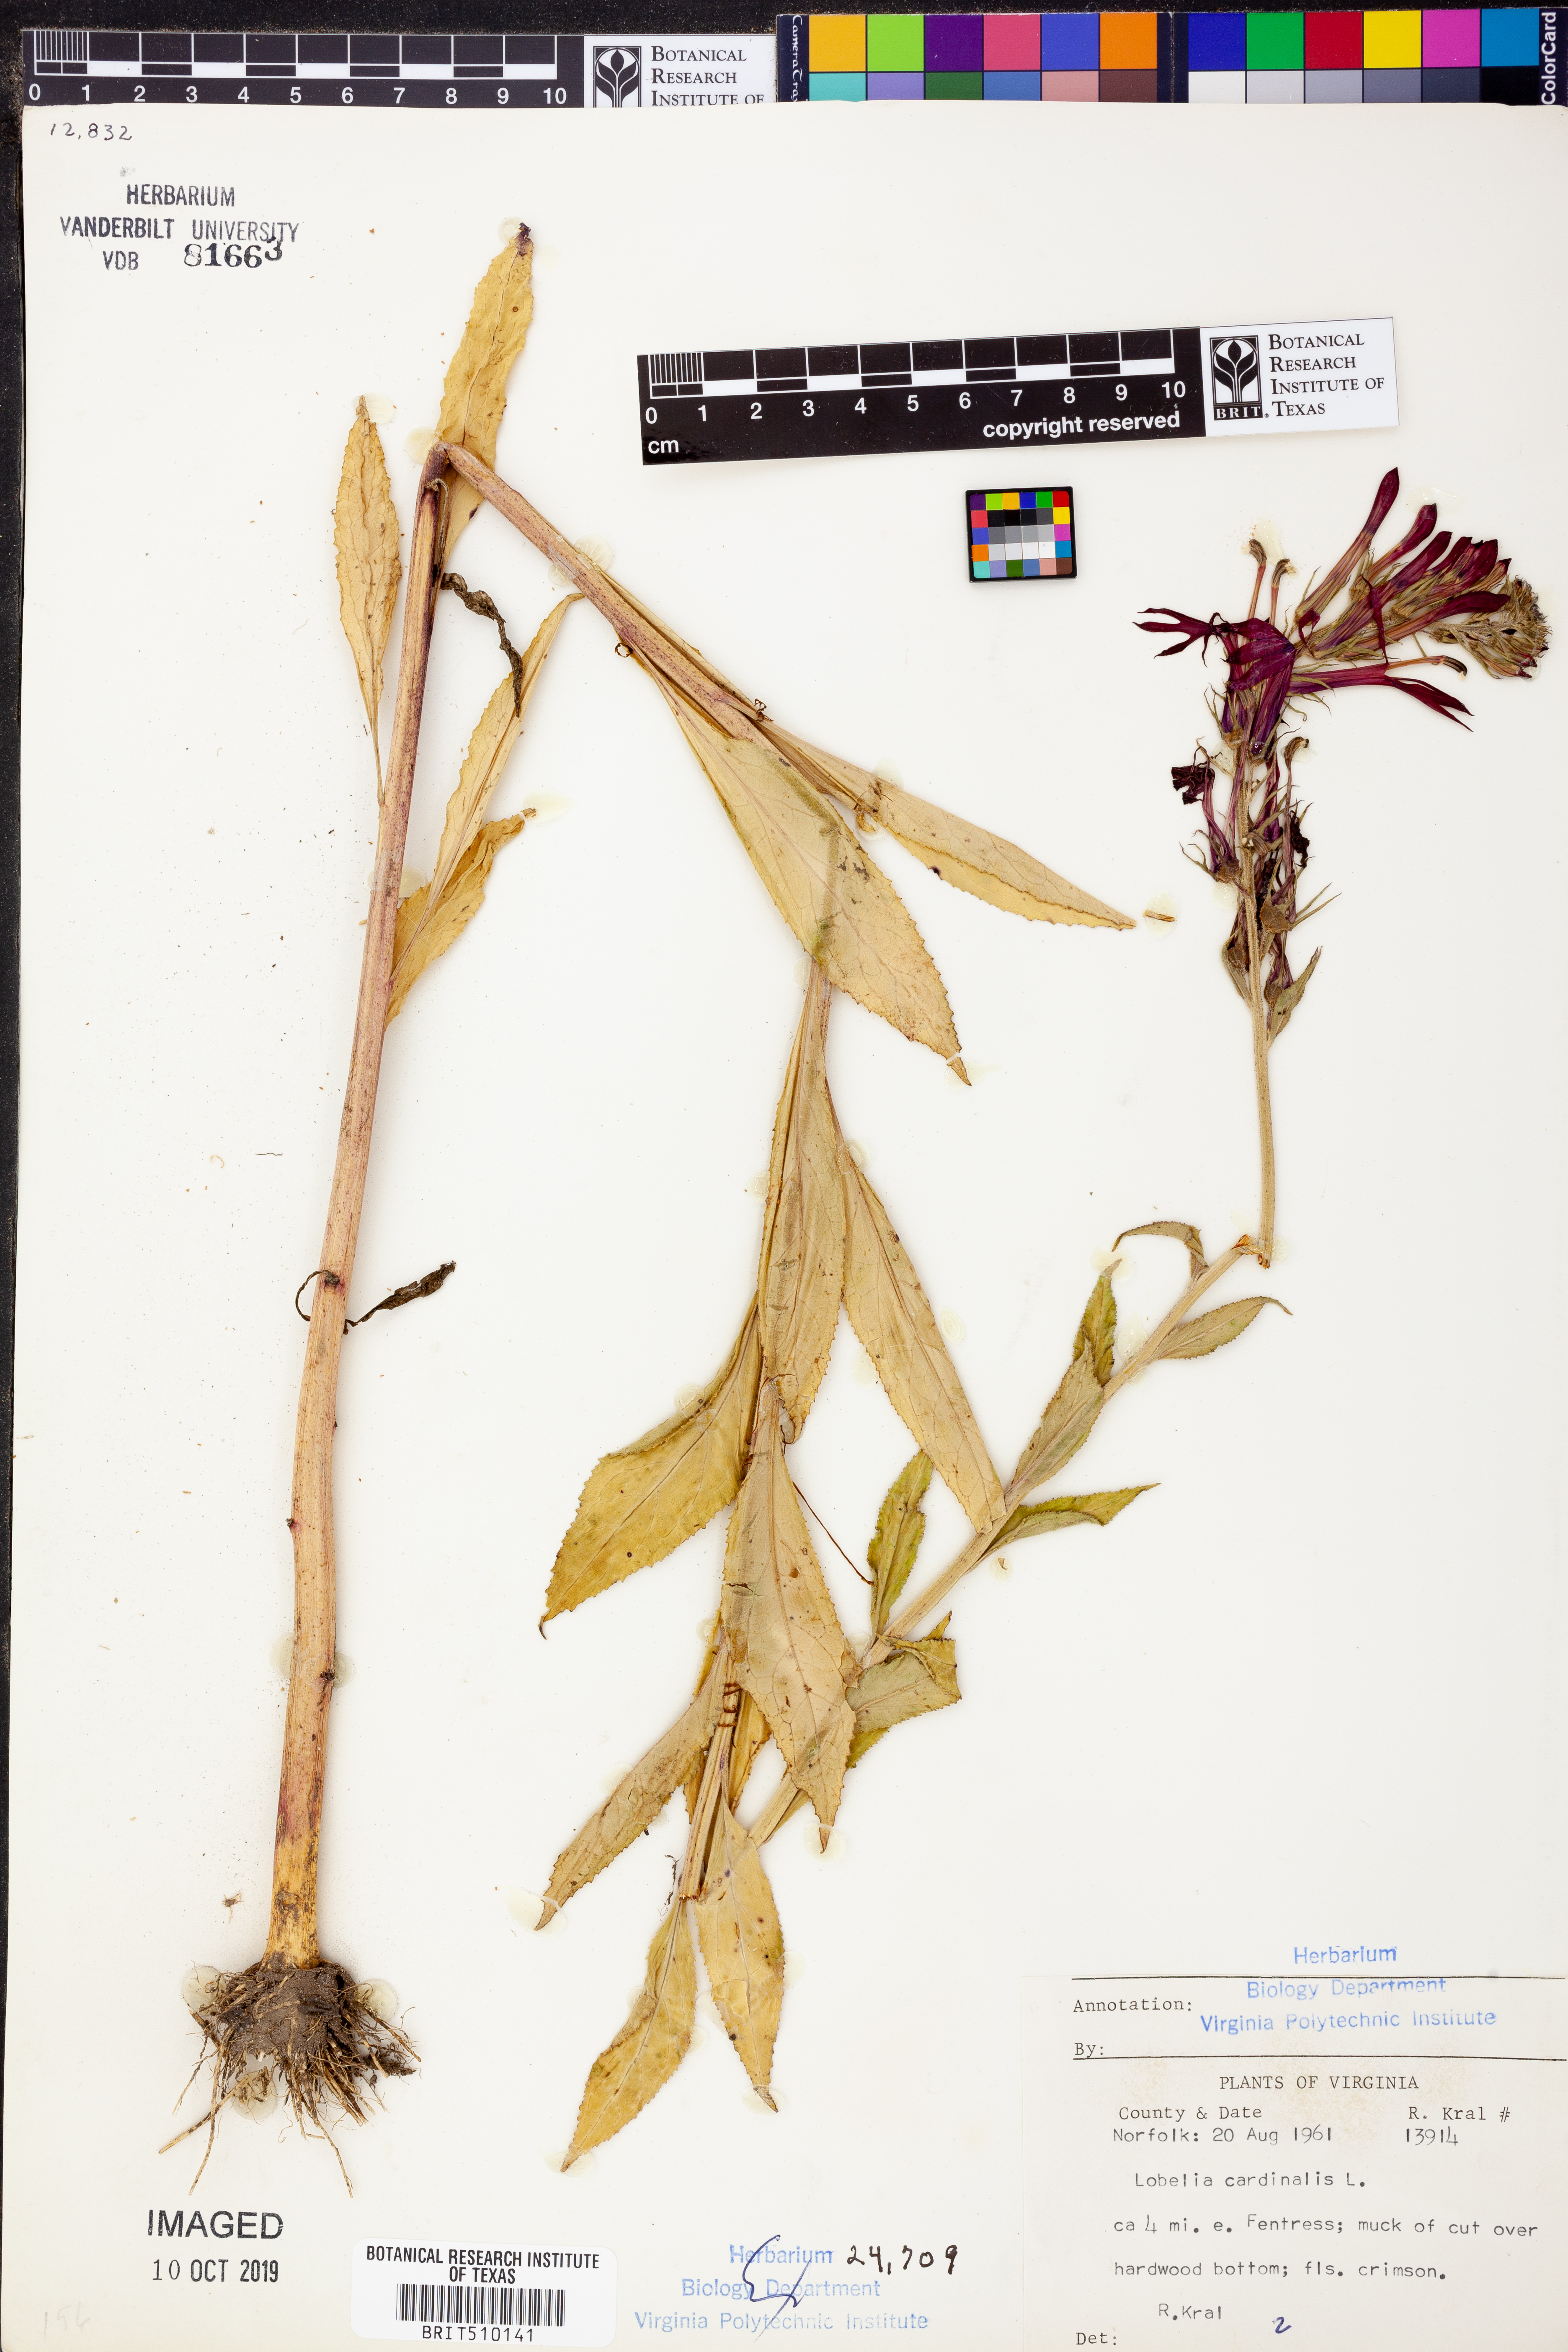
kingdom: Plantae
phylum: Tracheophyta
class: Magnoliopsida
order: Asterales
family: Campanulaceae
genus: Lobelia
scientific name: Lobelia cardinalis
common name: Cardinal flower
